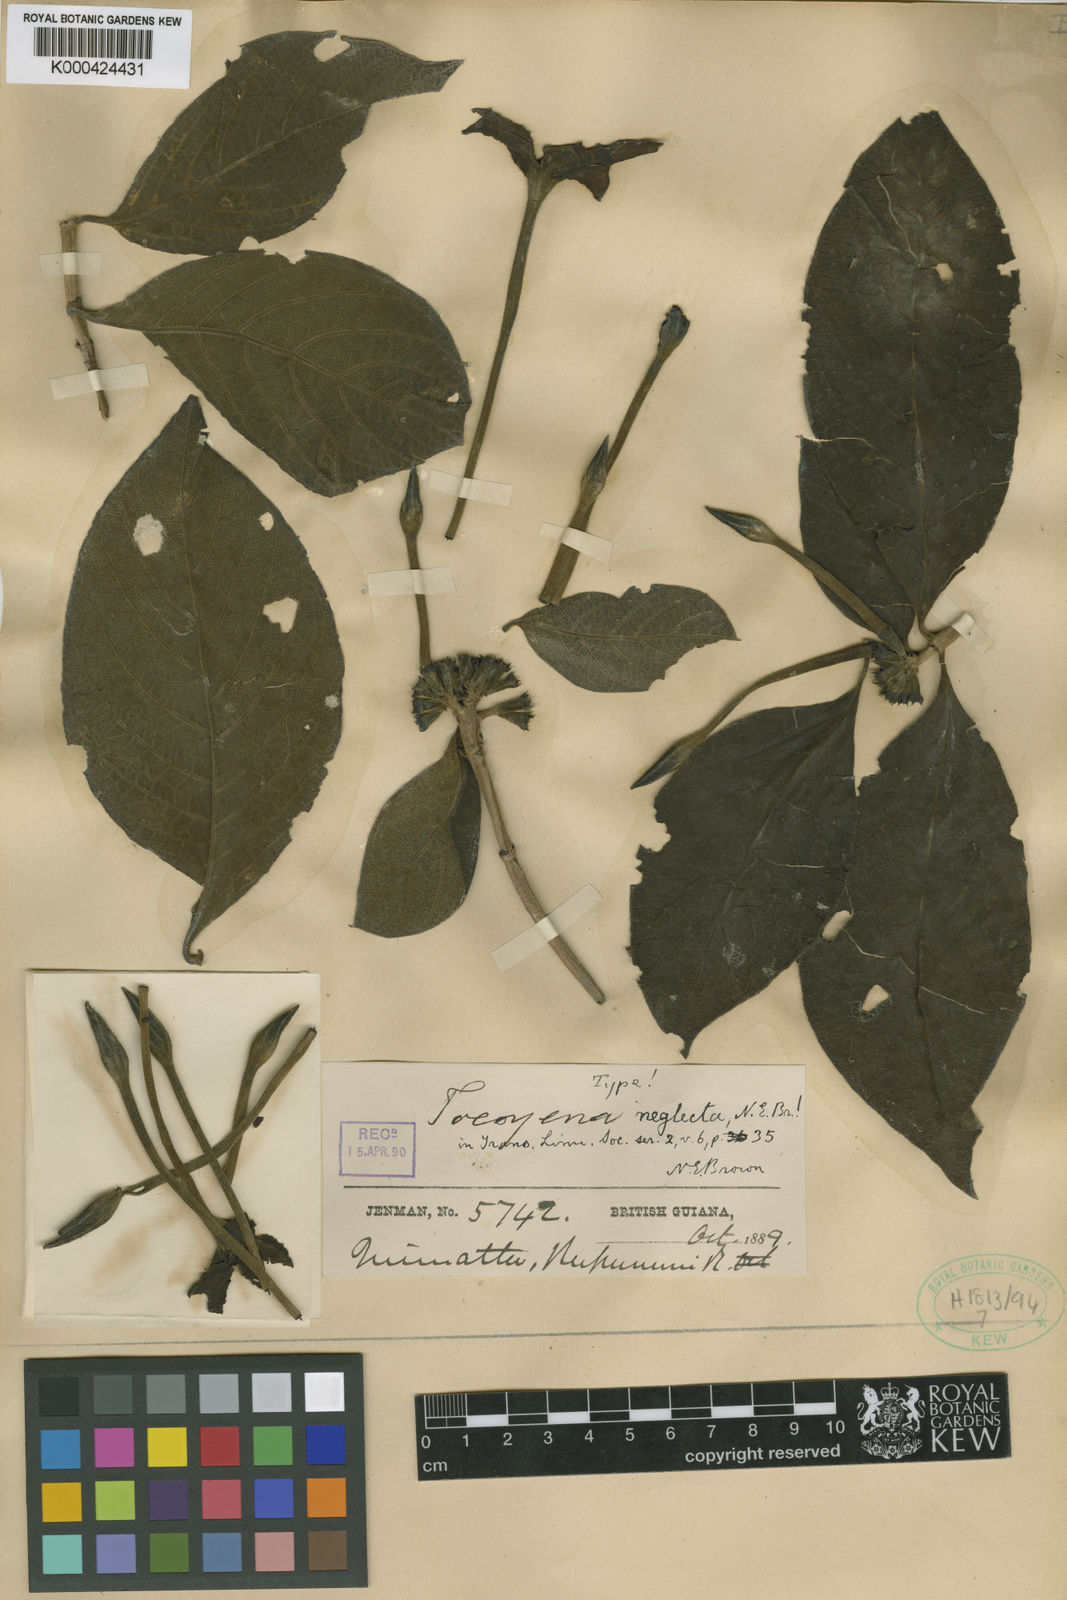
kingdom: Plantae
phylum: Tracheophyta
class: Magnoliopsida
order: Gentianales
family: Rubiaceae
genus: Tocoyena
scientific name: Tocoyena neglecta
